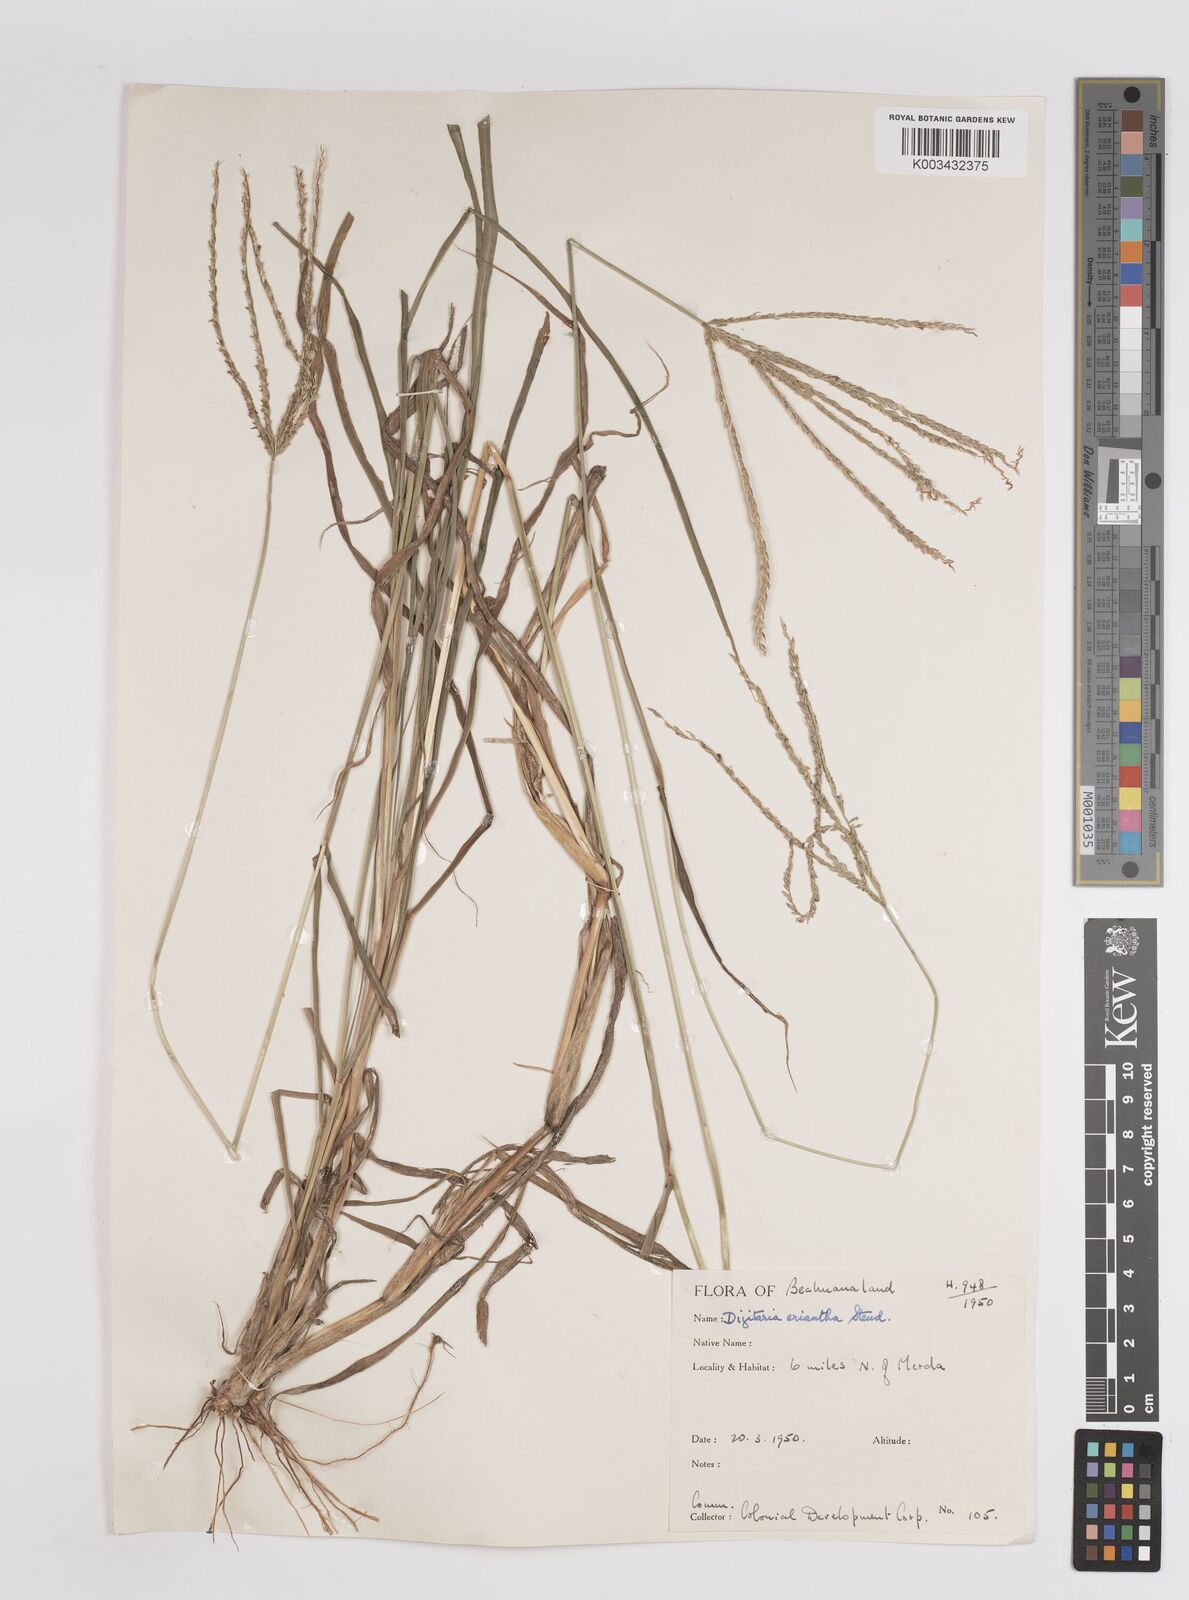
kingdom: Plantae
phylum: Tracheophyta
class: Liliopsida
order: Poales
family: Poaceae
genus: Digitaria
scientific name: Digitaria eriantha
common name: Digitgrass
